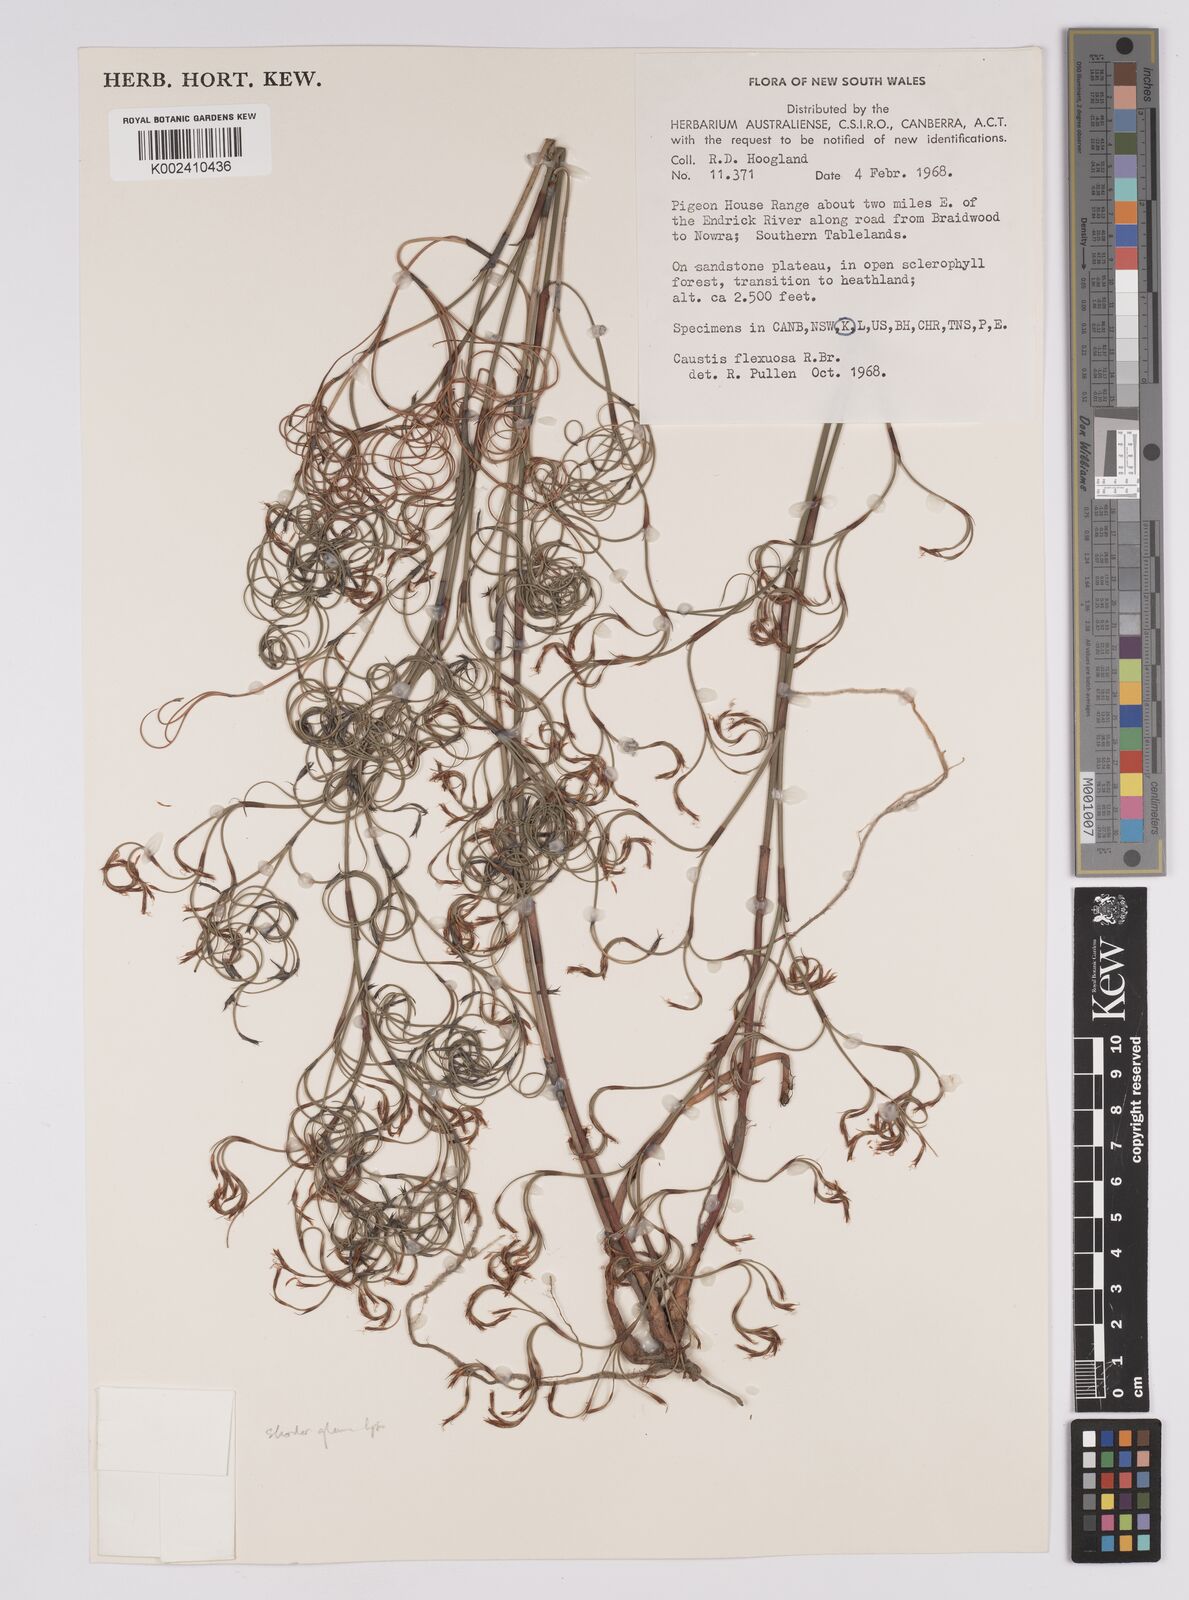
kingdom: Plantae
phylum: Tracheophyta
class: Liliopsida
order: Poales
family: Cyperaceae
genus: Caustis
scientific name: Caustis flexuosa
